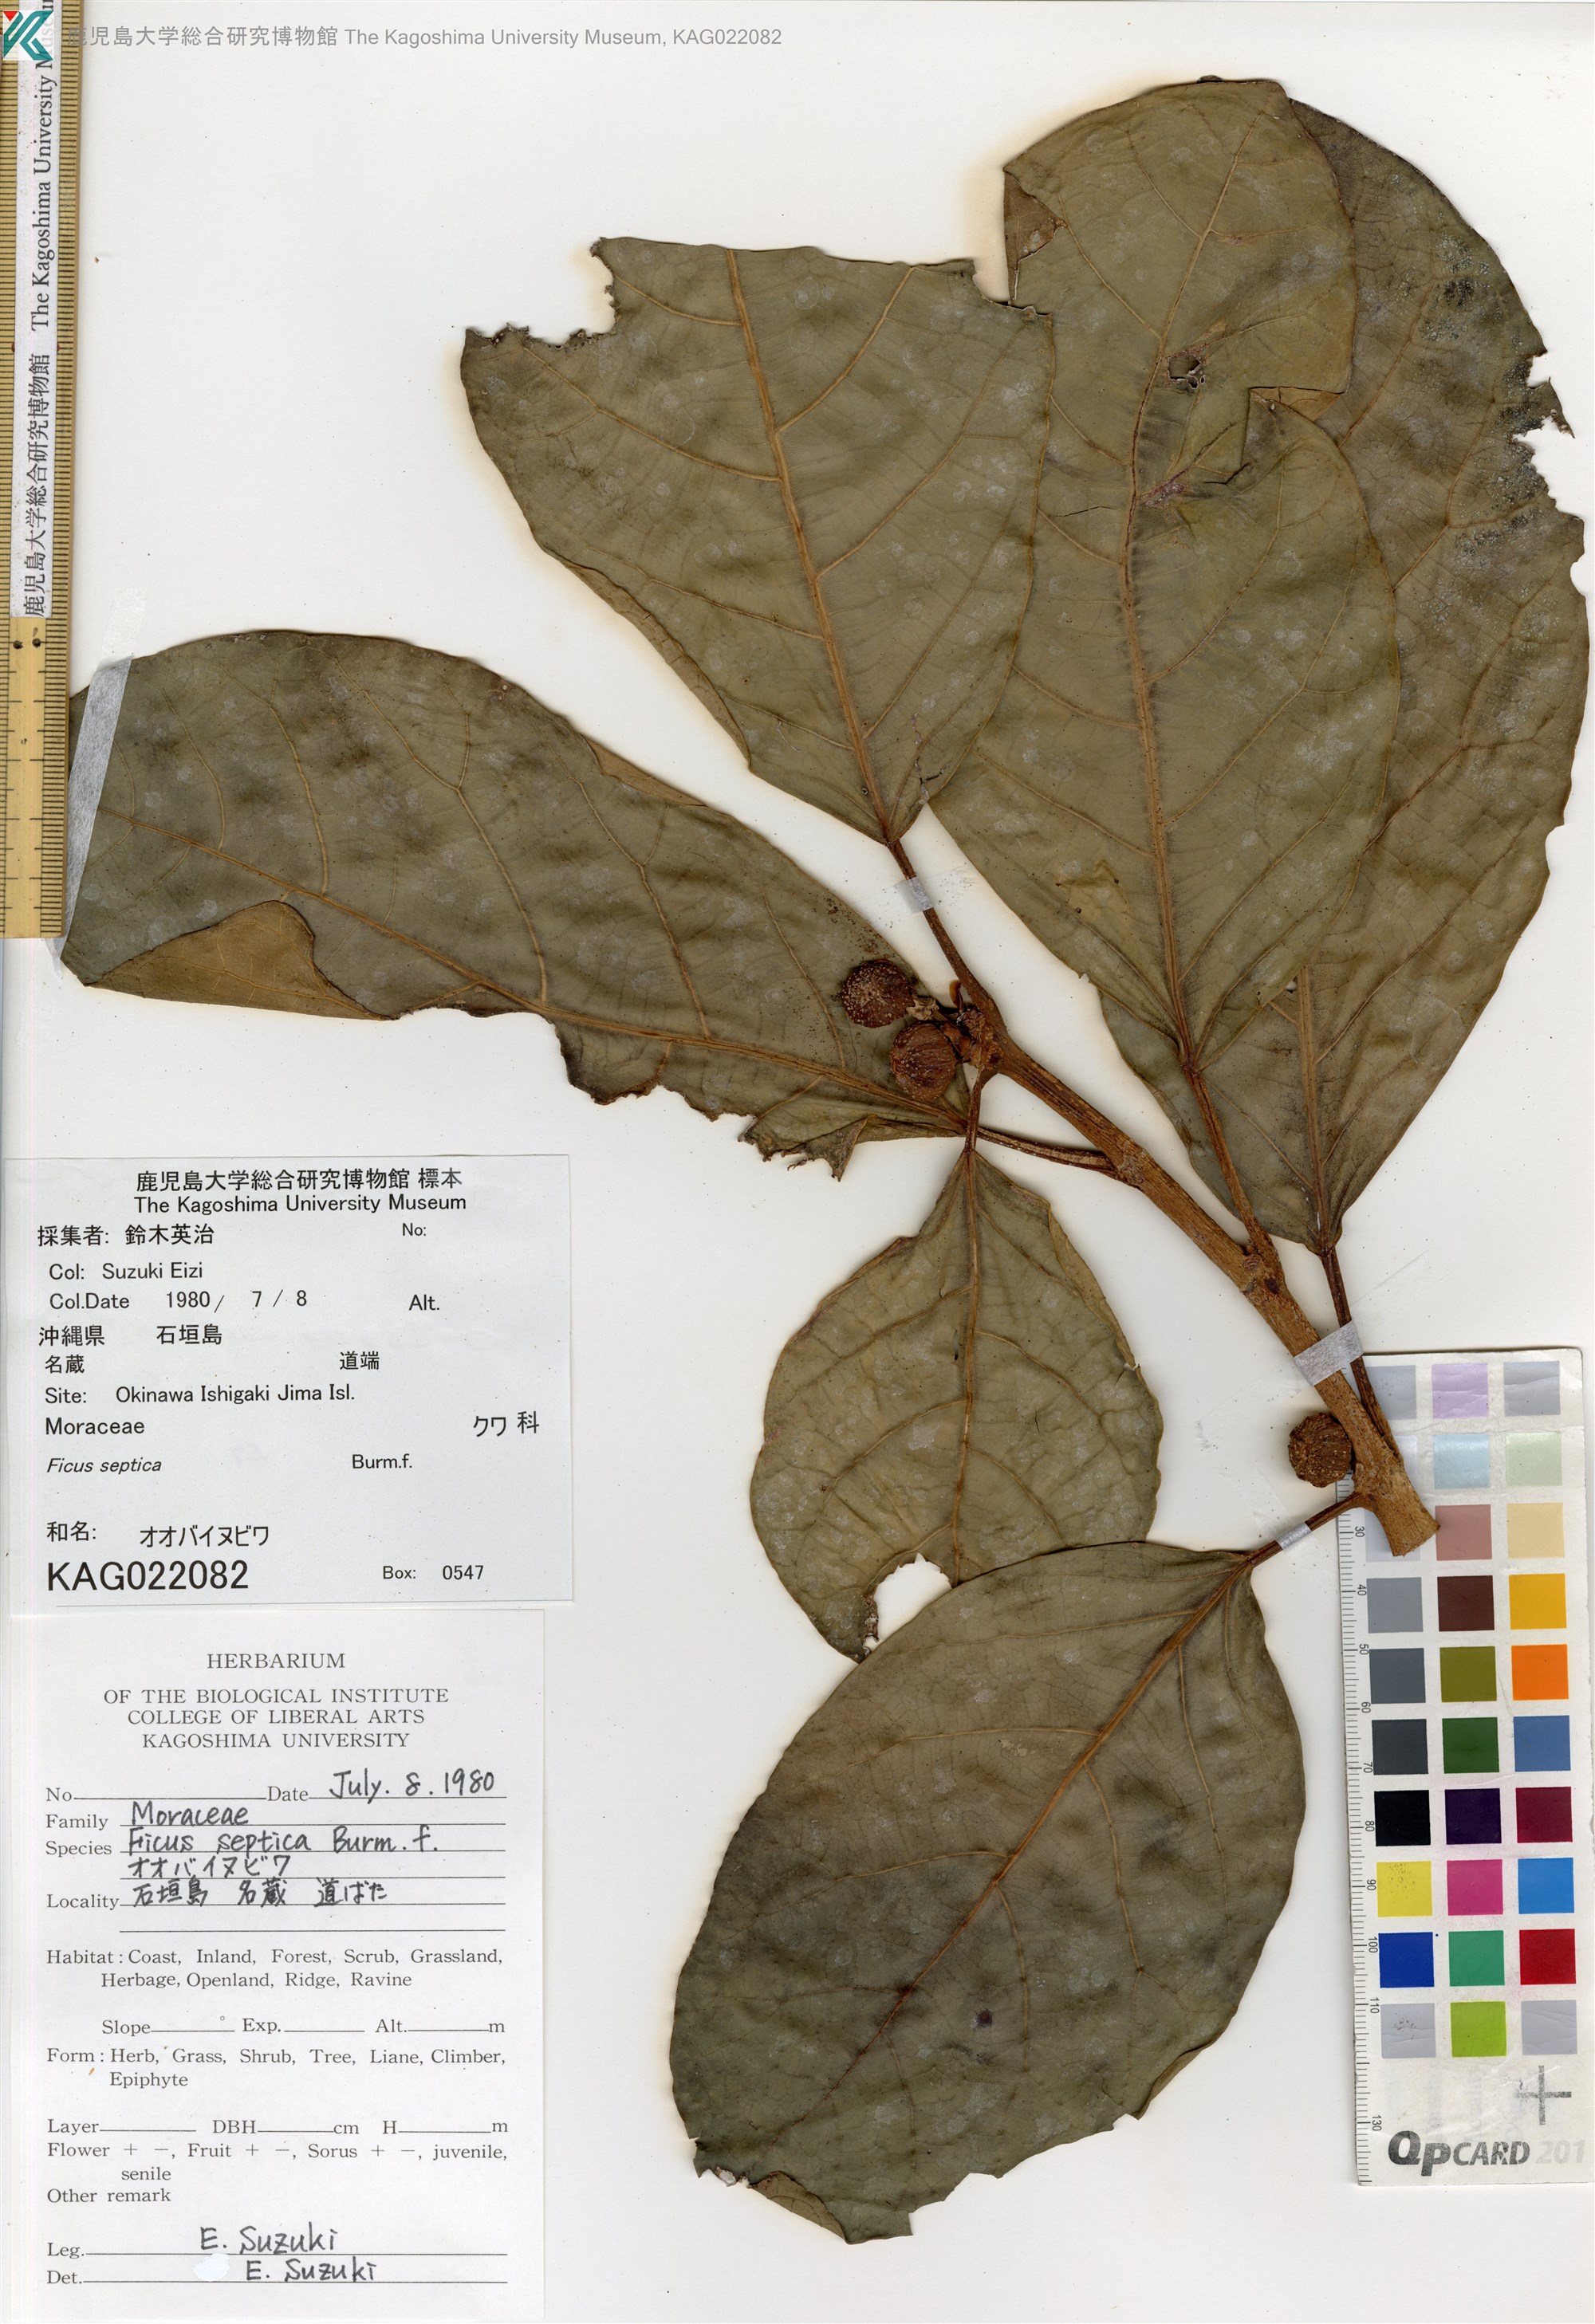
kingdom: Plantae
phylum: Tracheophyta
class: Magnoliopsida
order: Rosales
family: Moraceae
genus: Ficus
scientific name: Ficus septica
